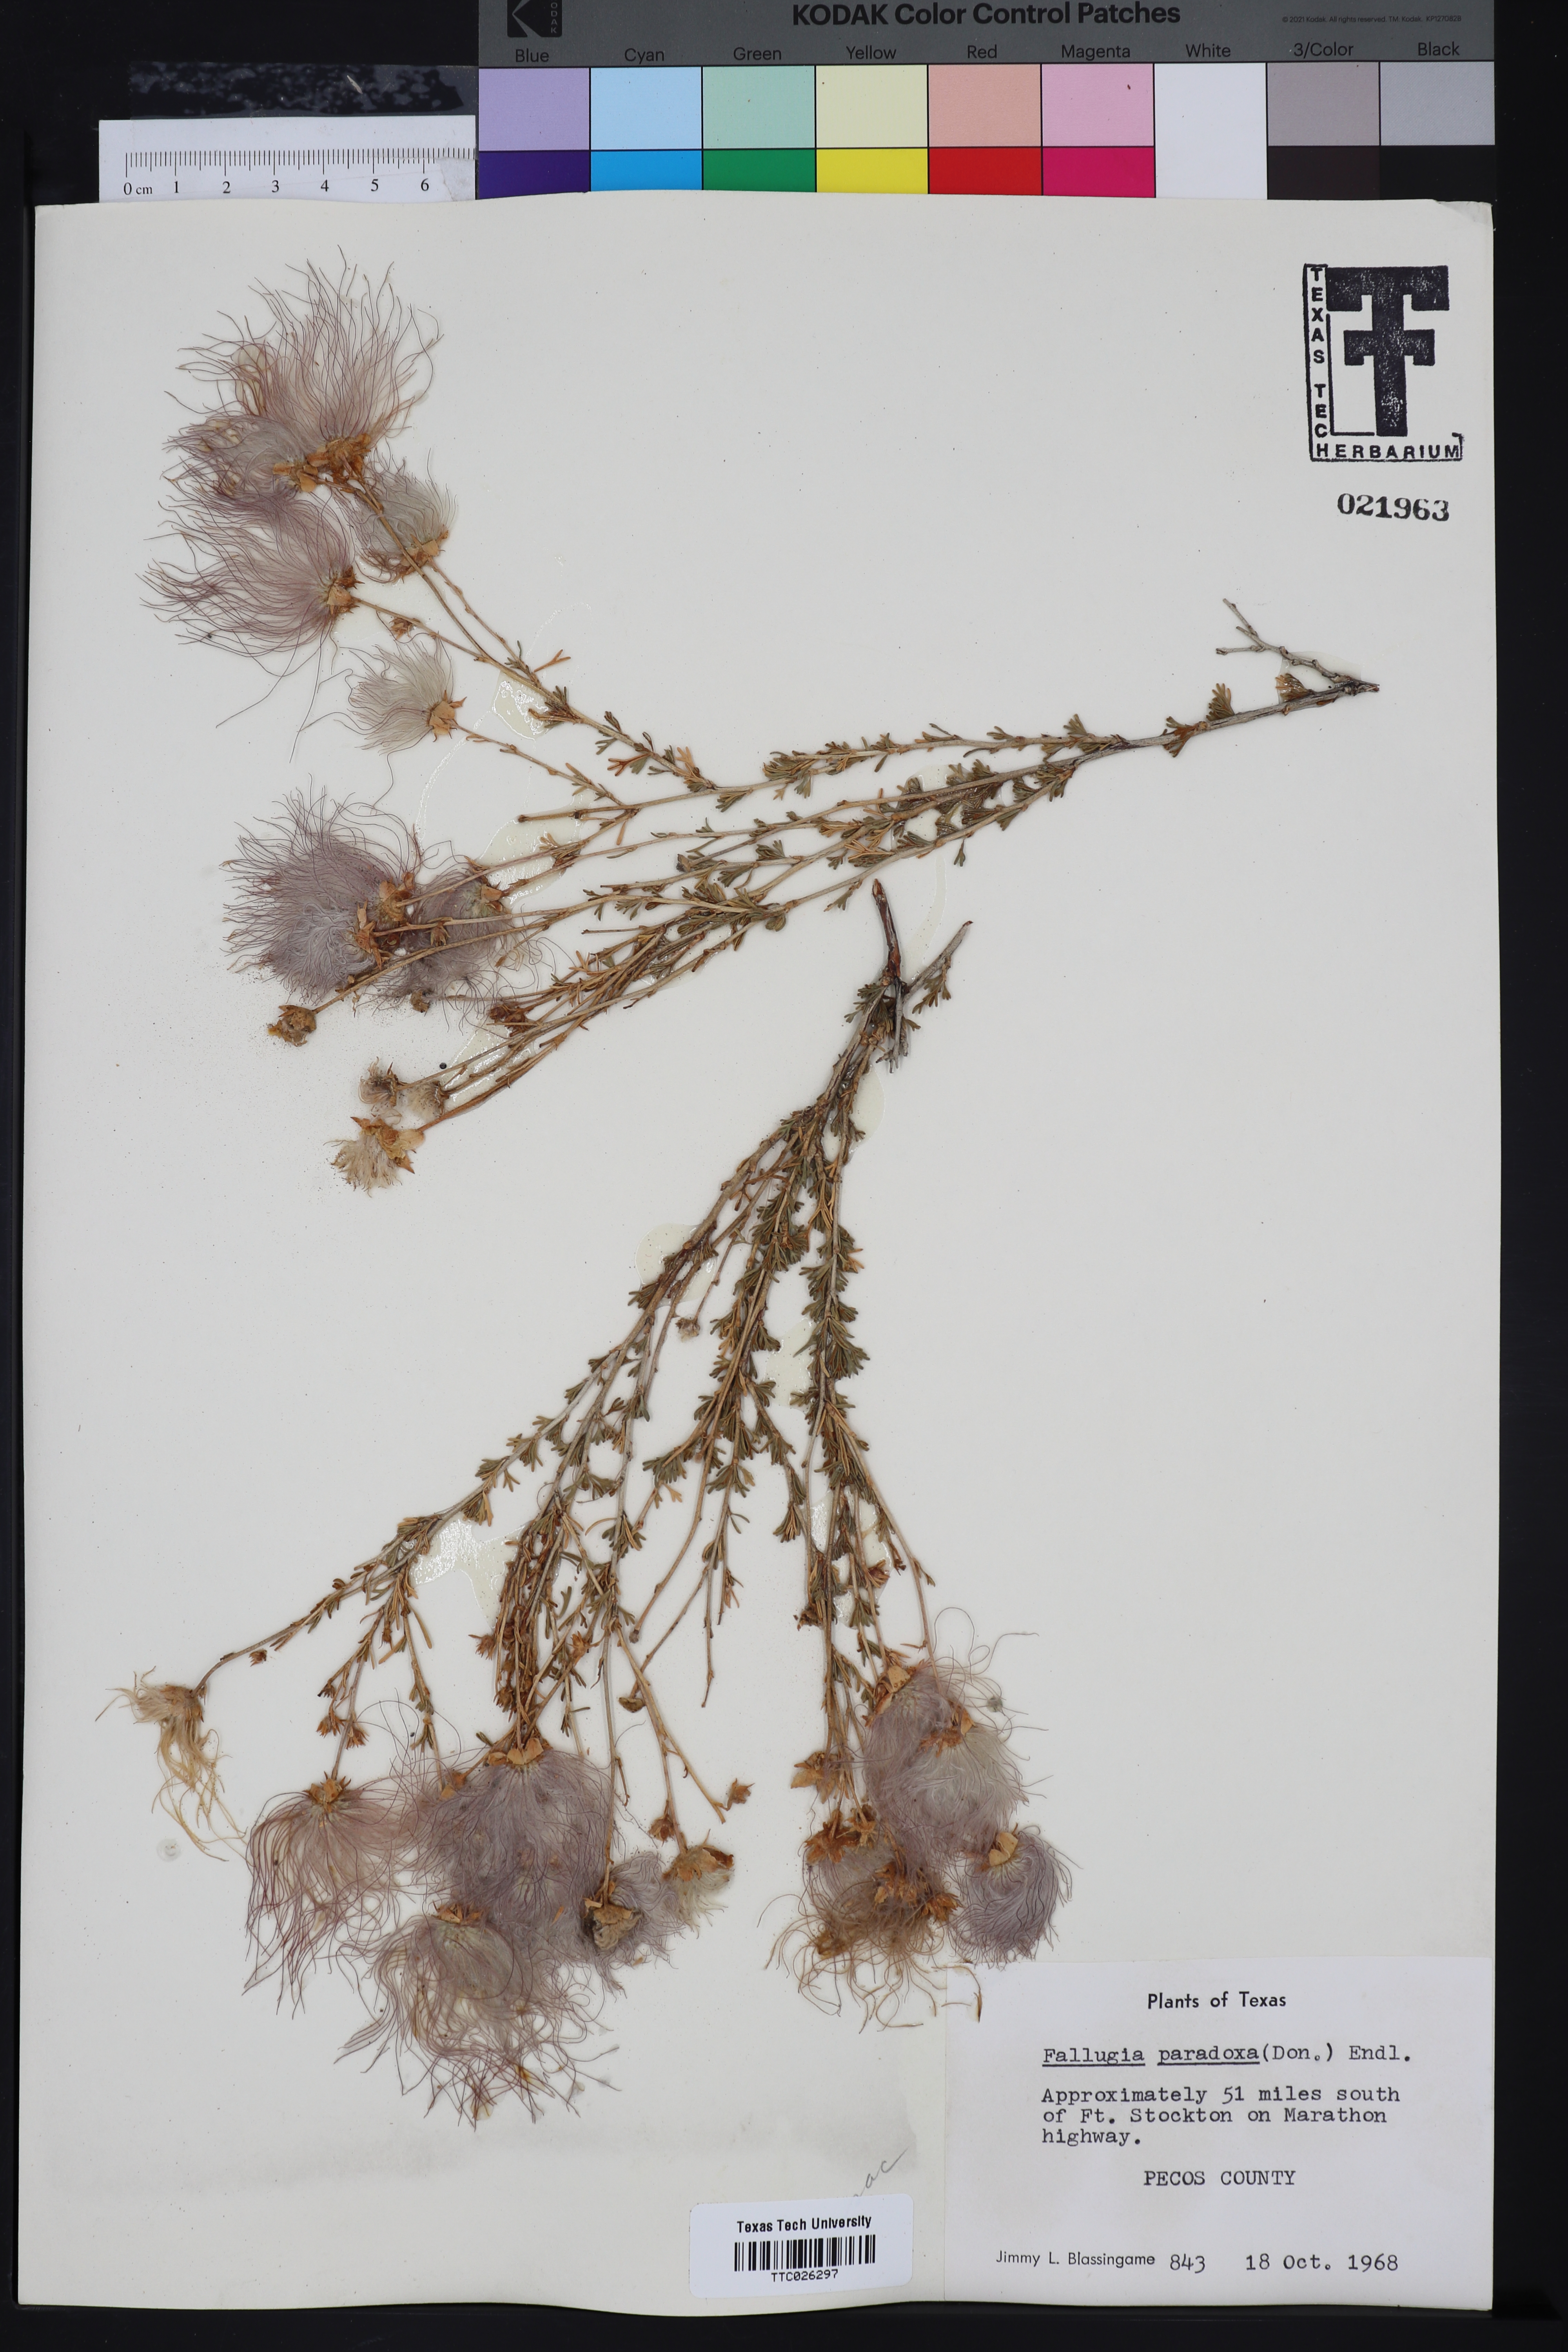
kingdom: Plantae
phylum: Tracheophyta
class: Magnoliopsida
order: Rosales
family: Rosaceae
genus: Fallugia
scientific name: Fallugia paradoxa
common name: Apache-plume
